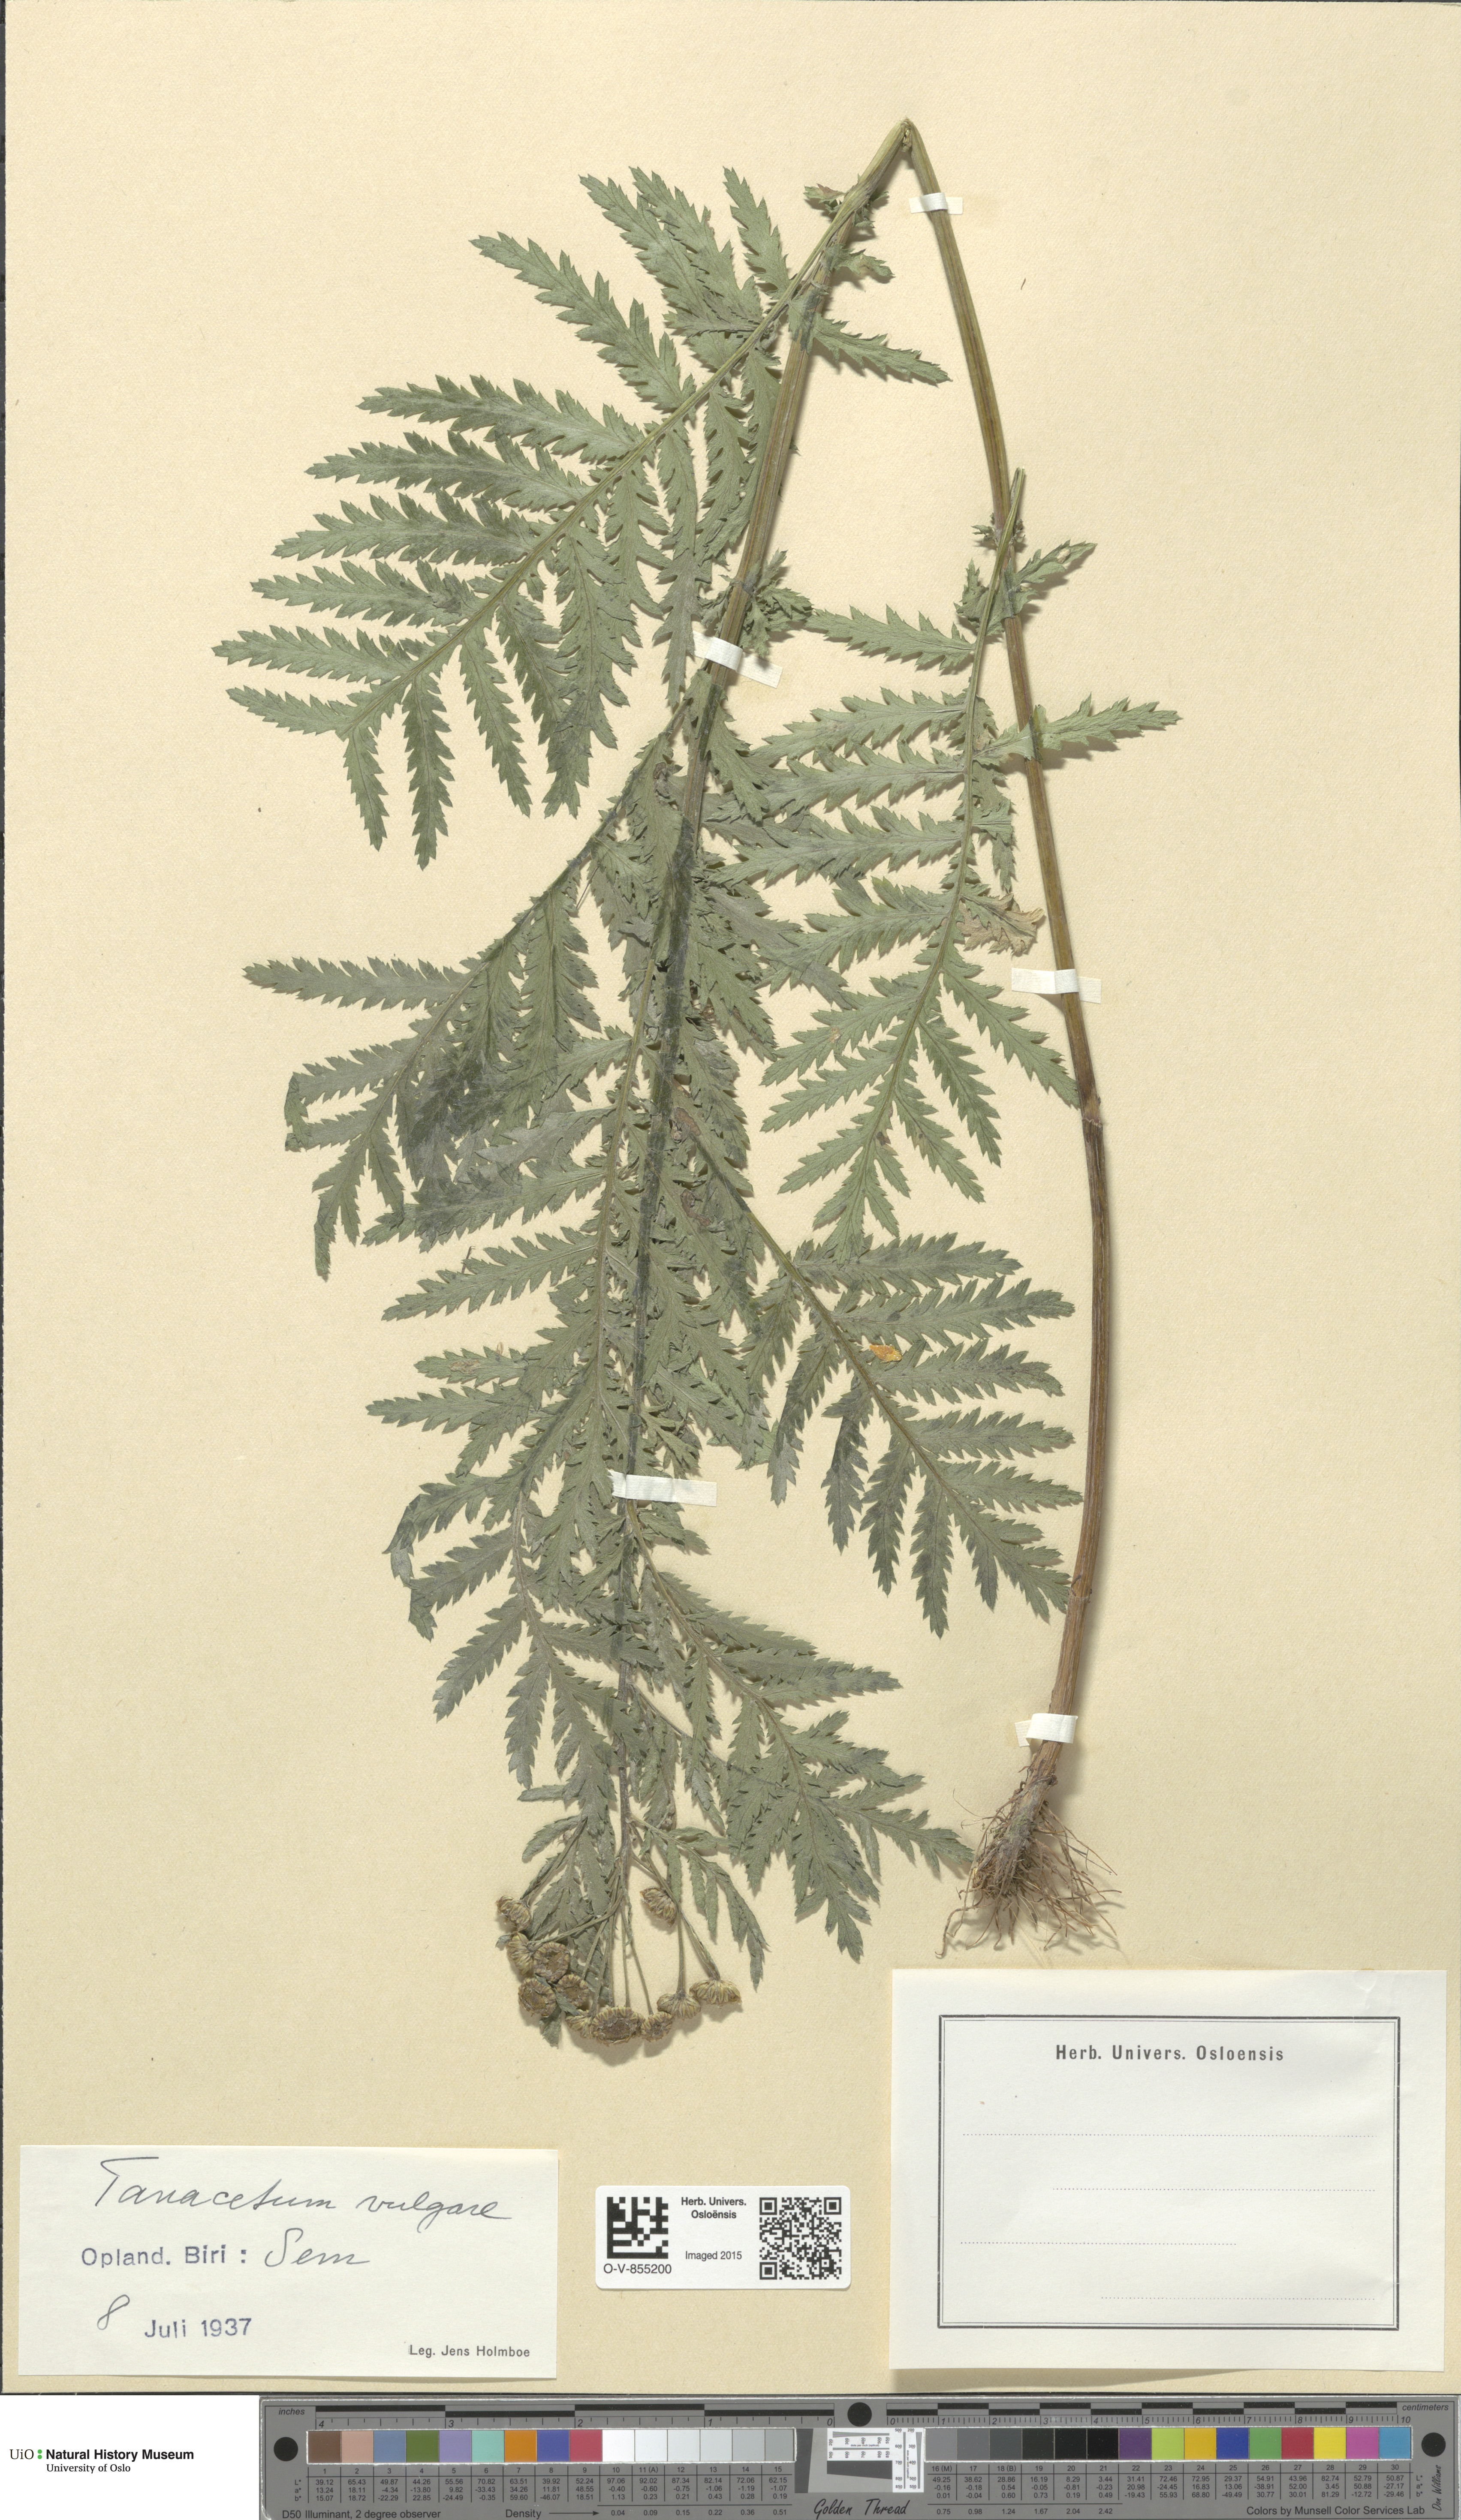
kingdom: Plantae
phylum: Tracheophyta
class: Magnoliopsida
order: Asterales
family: Asteraceae
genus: Tanacetum
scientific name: Tanacetum vulgare
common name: Common tansy
